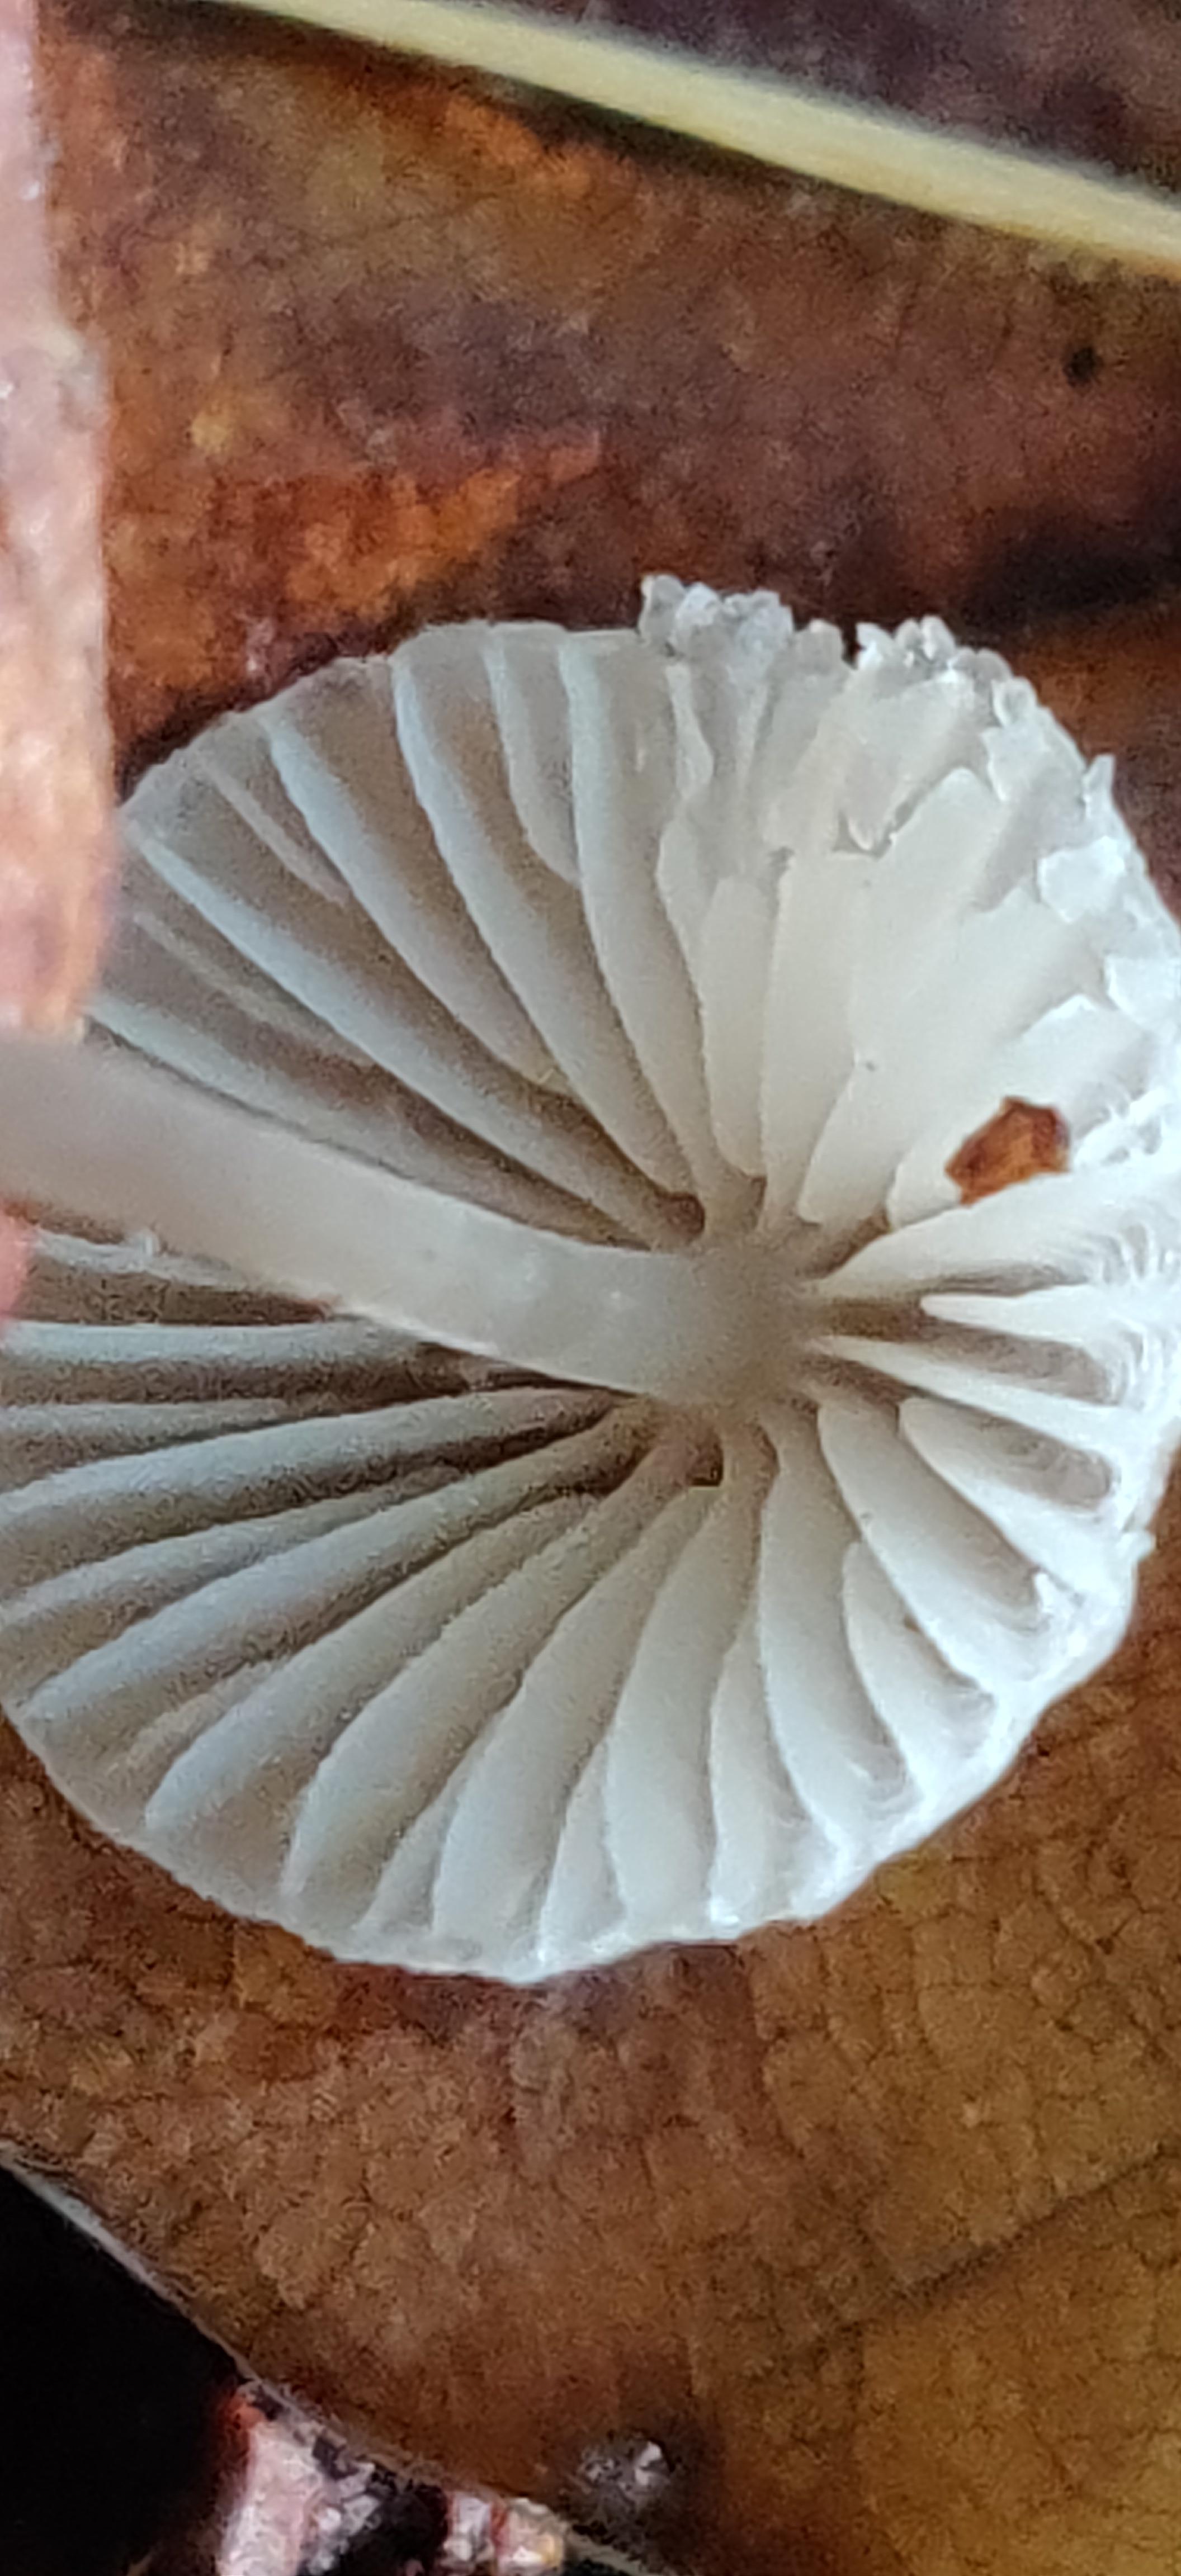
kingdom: Fungi
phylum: Basidiomycota
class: Agaricomycetes
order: Agaricales
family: Mycenaceae
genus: Mycena
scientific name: Mycena
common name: huesvamp
